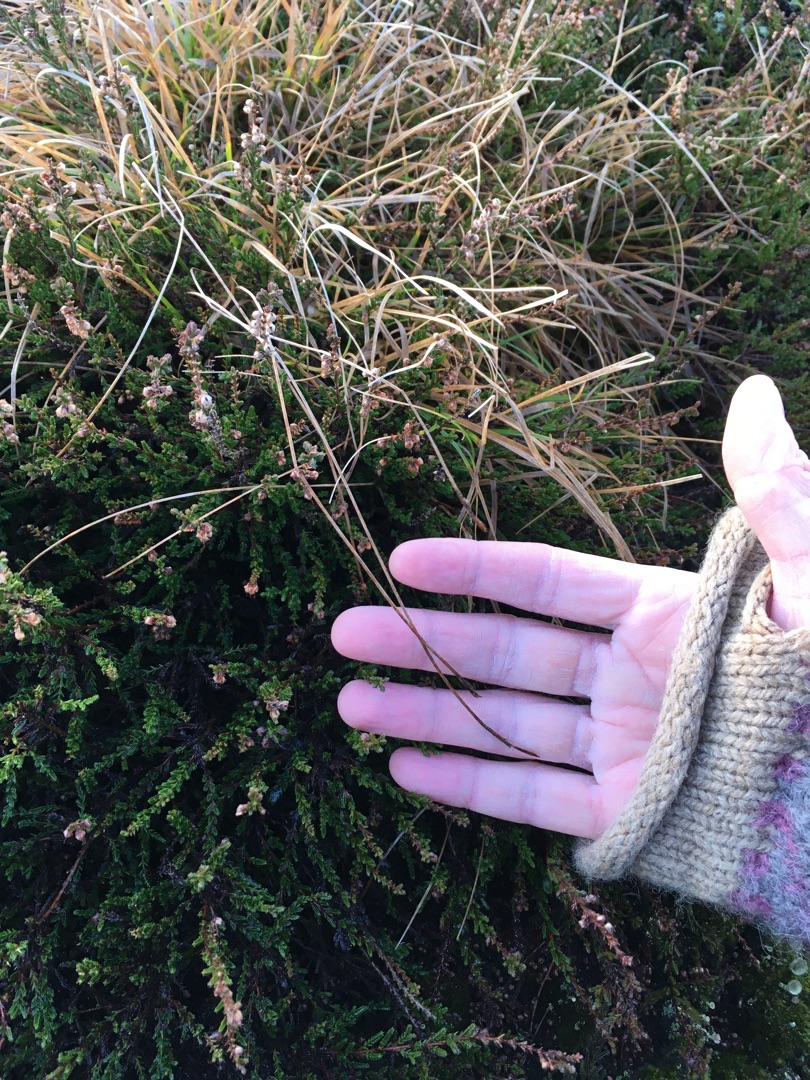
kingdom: Plantae
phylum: Tracheophyta
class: Liliopsida
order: Poales
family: Cyperaceae
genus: Carex
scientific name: Carex pilulifera
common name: Pille-star
